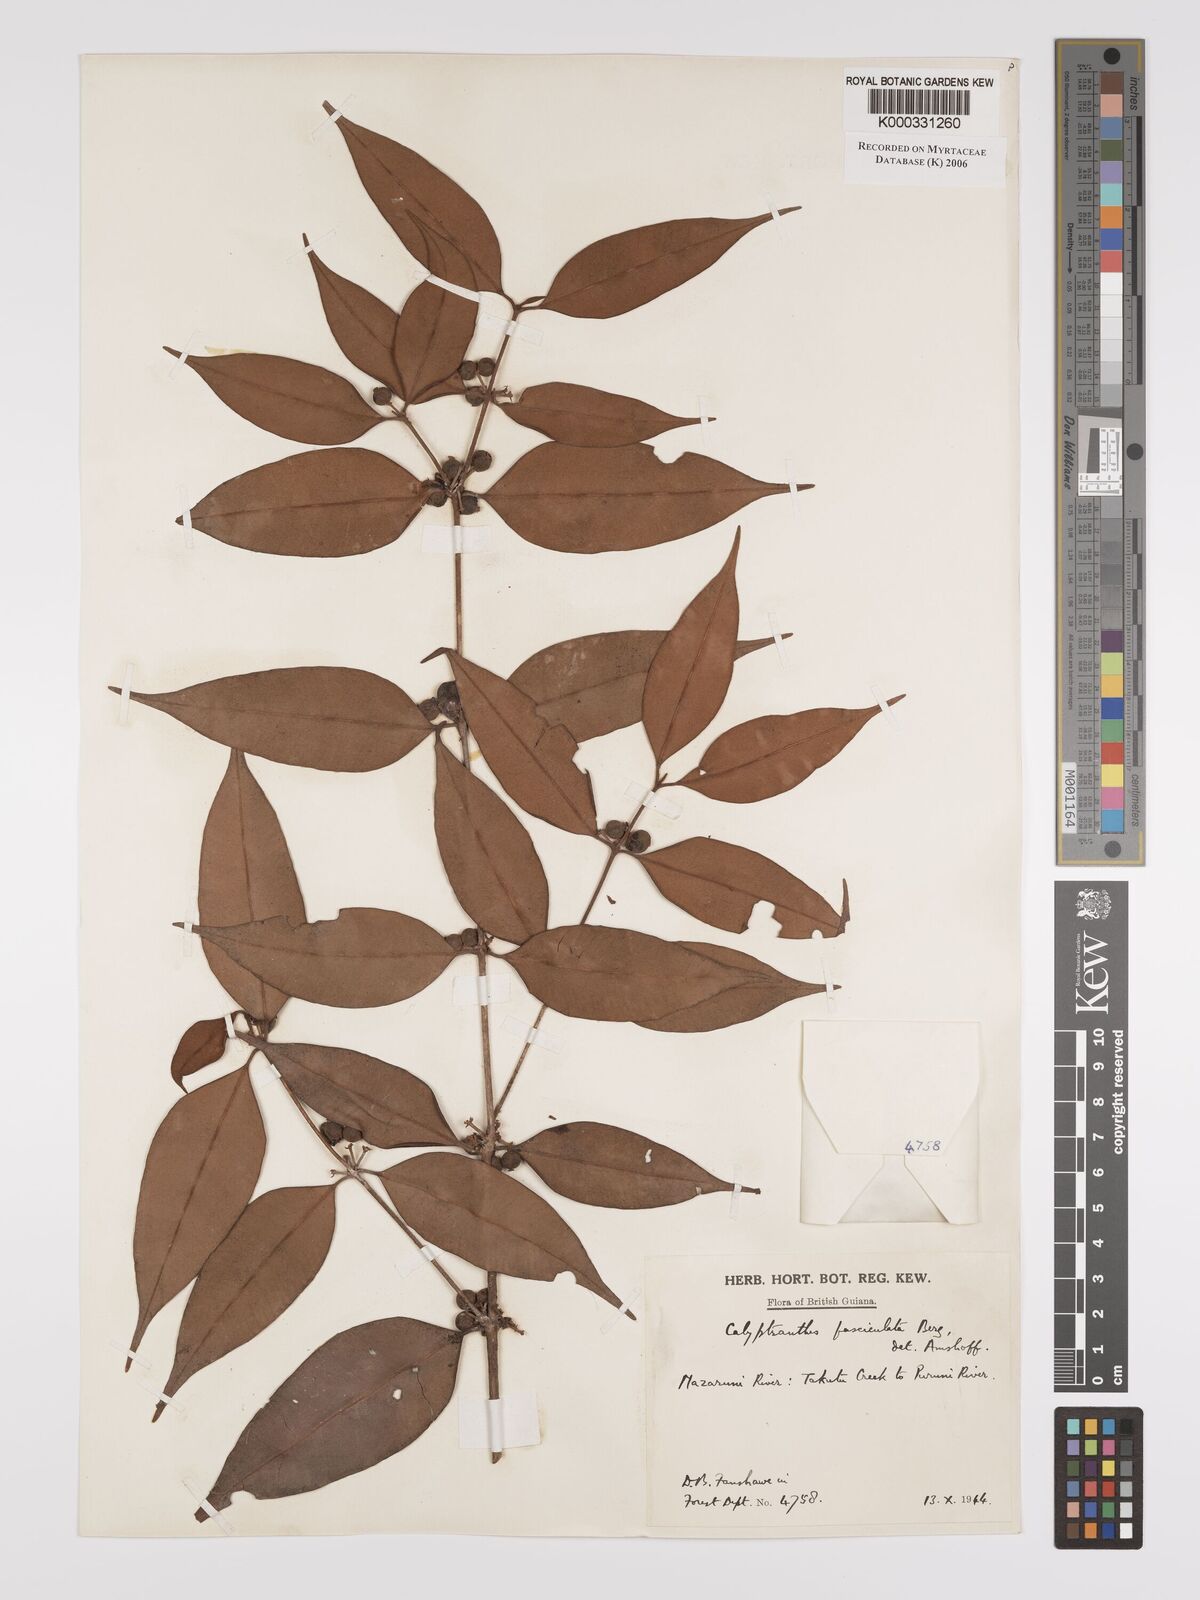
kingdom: Plantae
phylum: Tracheophyta
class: Magnoliopsida
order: Myrtales
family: Myrtaceae
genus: Myrcia
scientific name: Myrcia fasciculata
